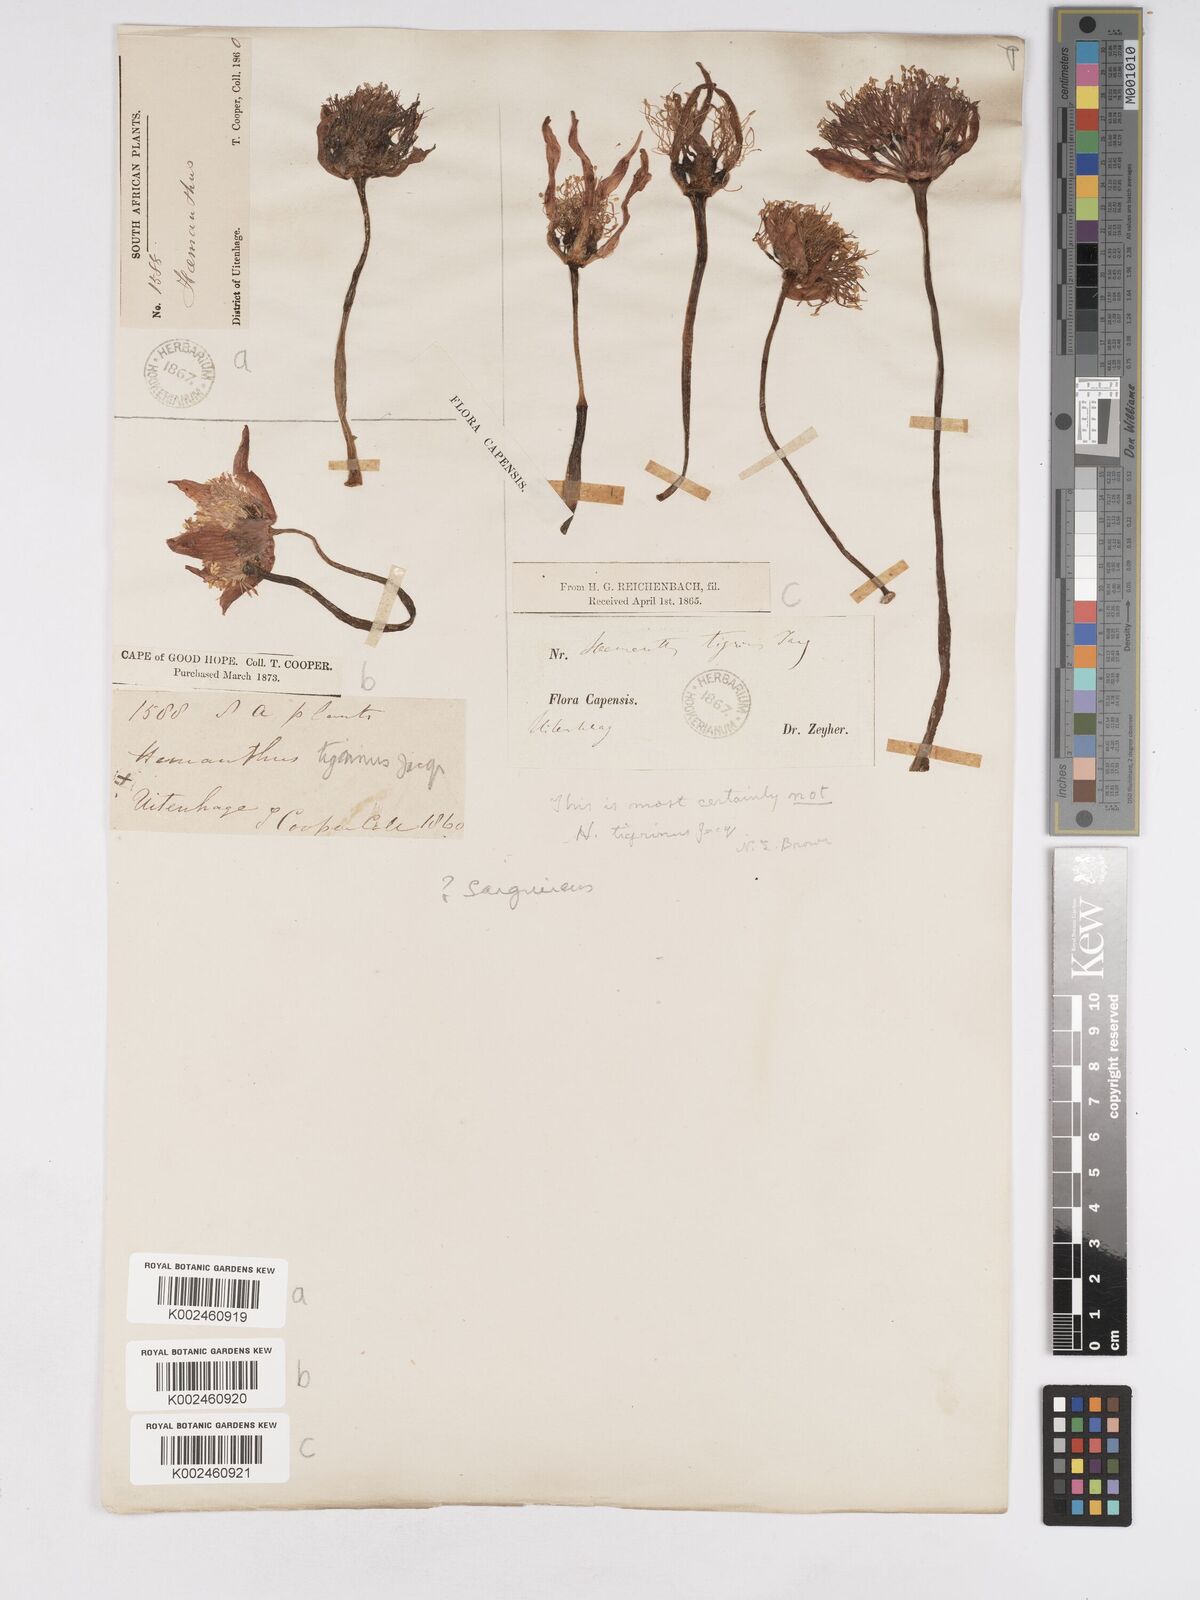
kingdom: Plantae
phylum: Tracheophyta
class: Liliopsida
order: Asparagales
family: Amaryllidaceae
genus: Haemanthus
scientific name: Haemanthus sanguineus
